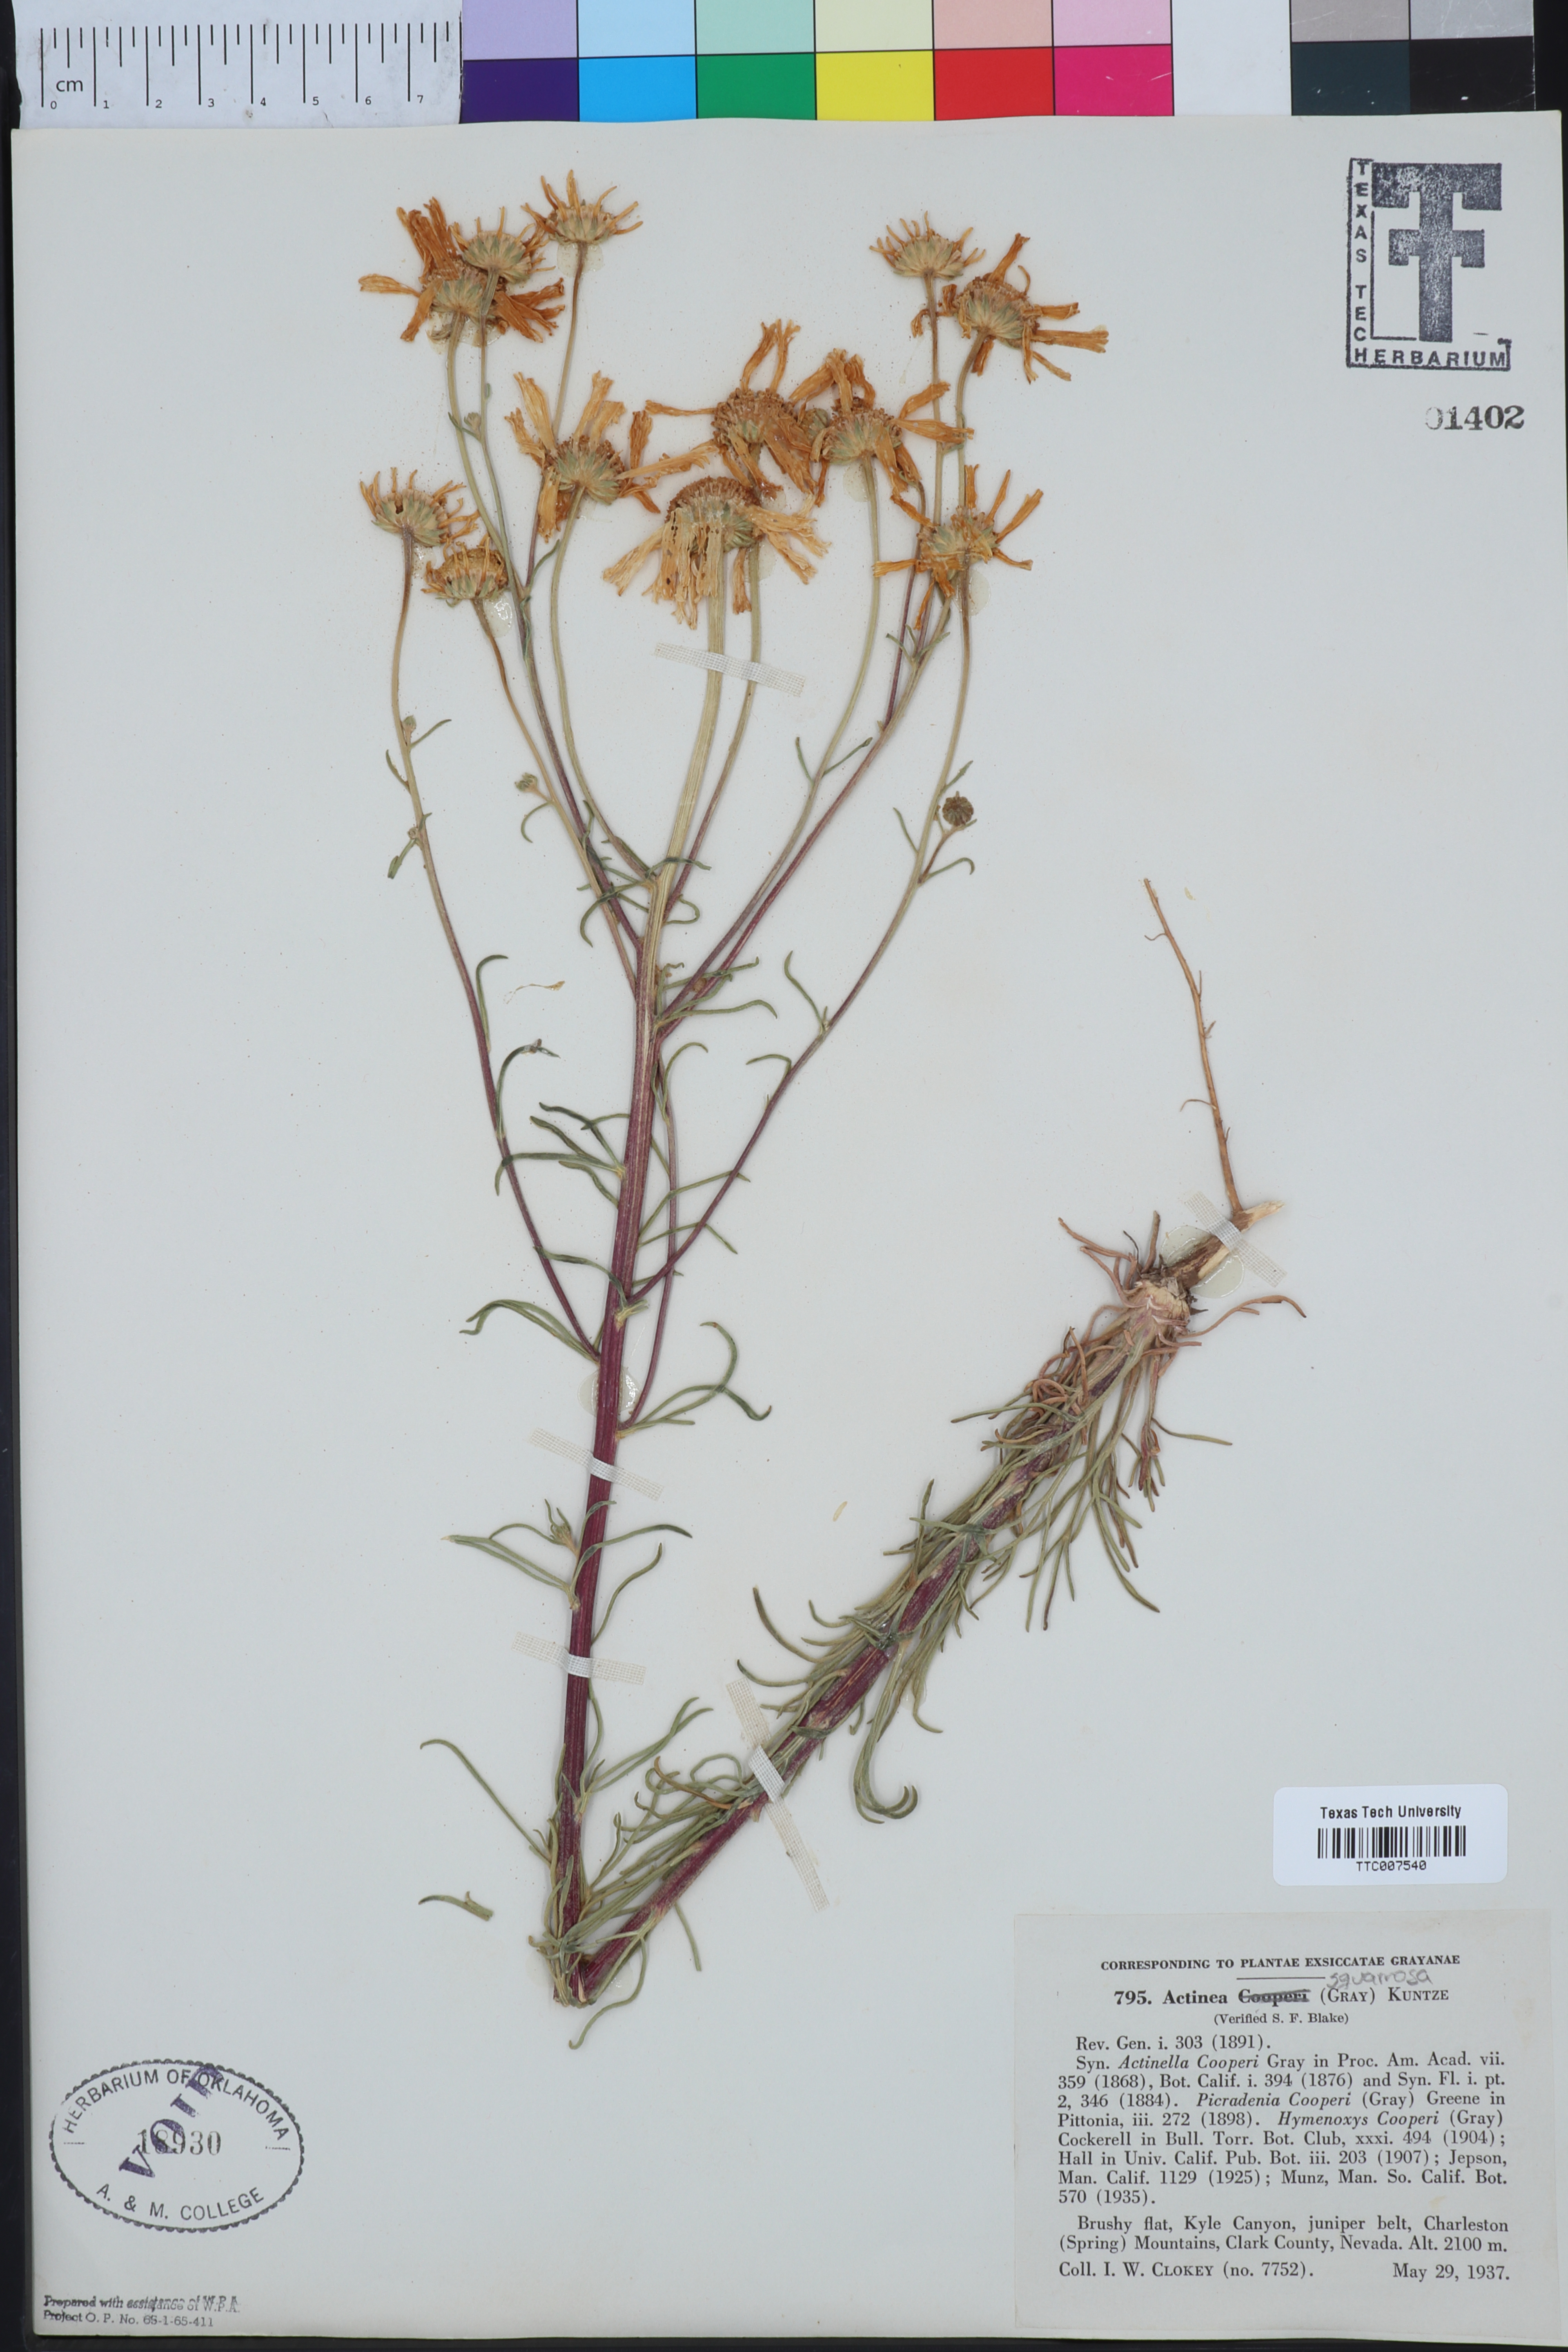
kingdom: Plantae
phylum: Tracheophyta
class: Magnoliopsida
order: Asterales
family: Asteraceae
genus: Hymenoxys
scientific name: Hymenoxys cooperi
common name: Cooper's bitterweed
